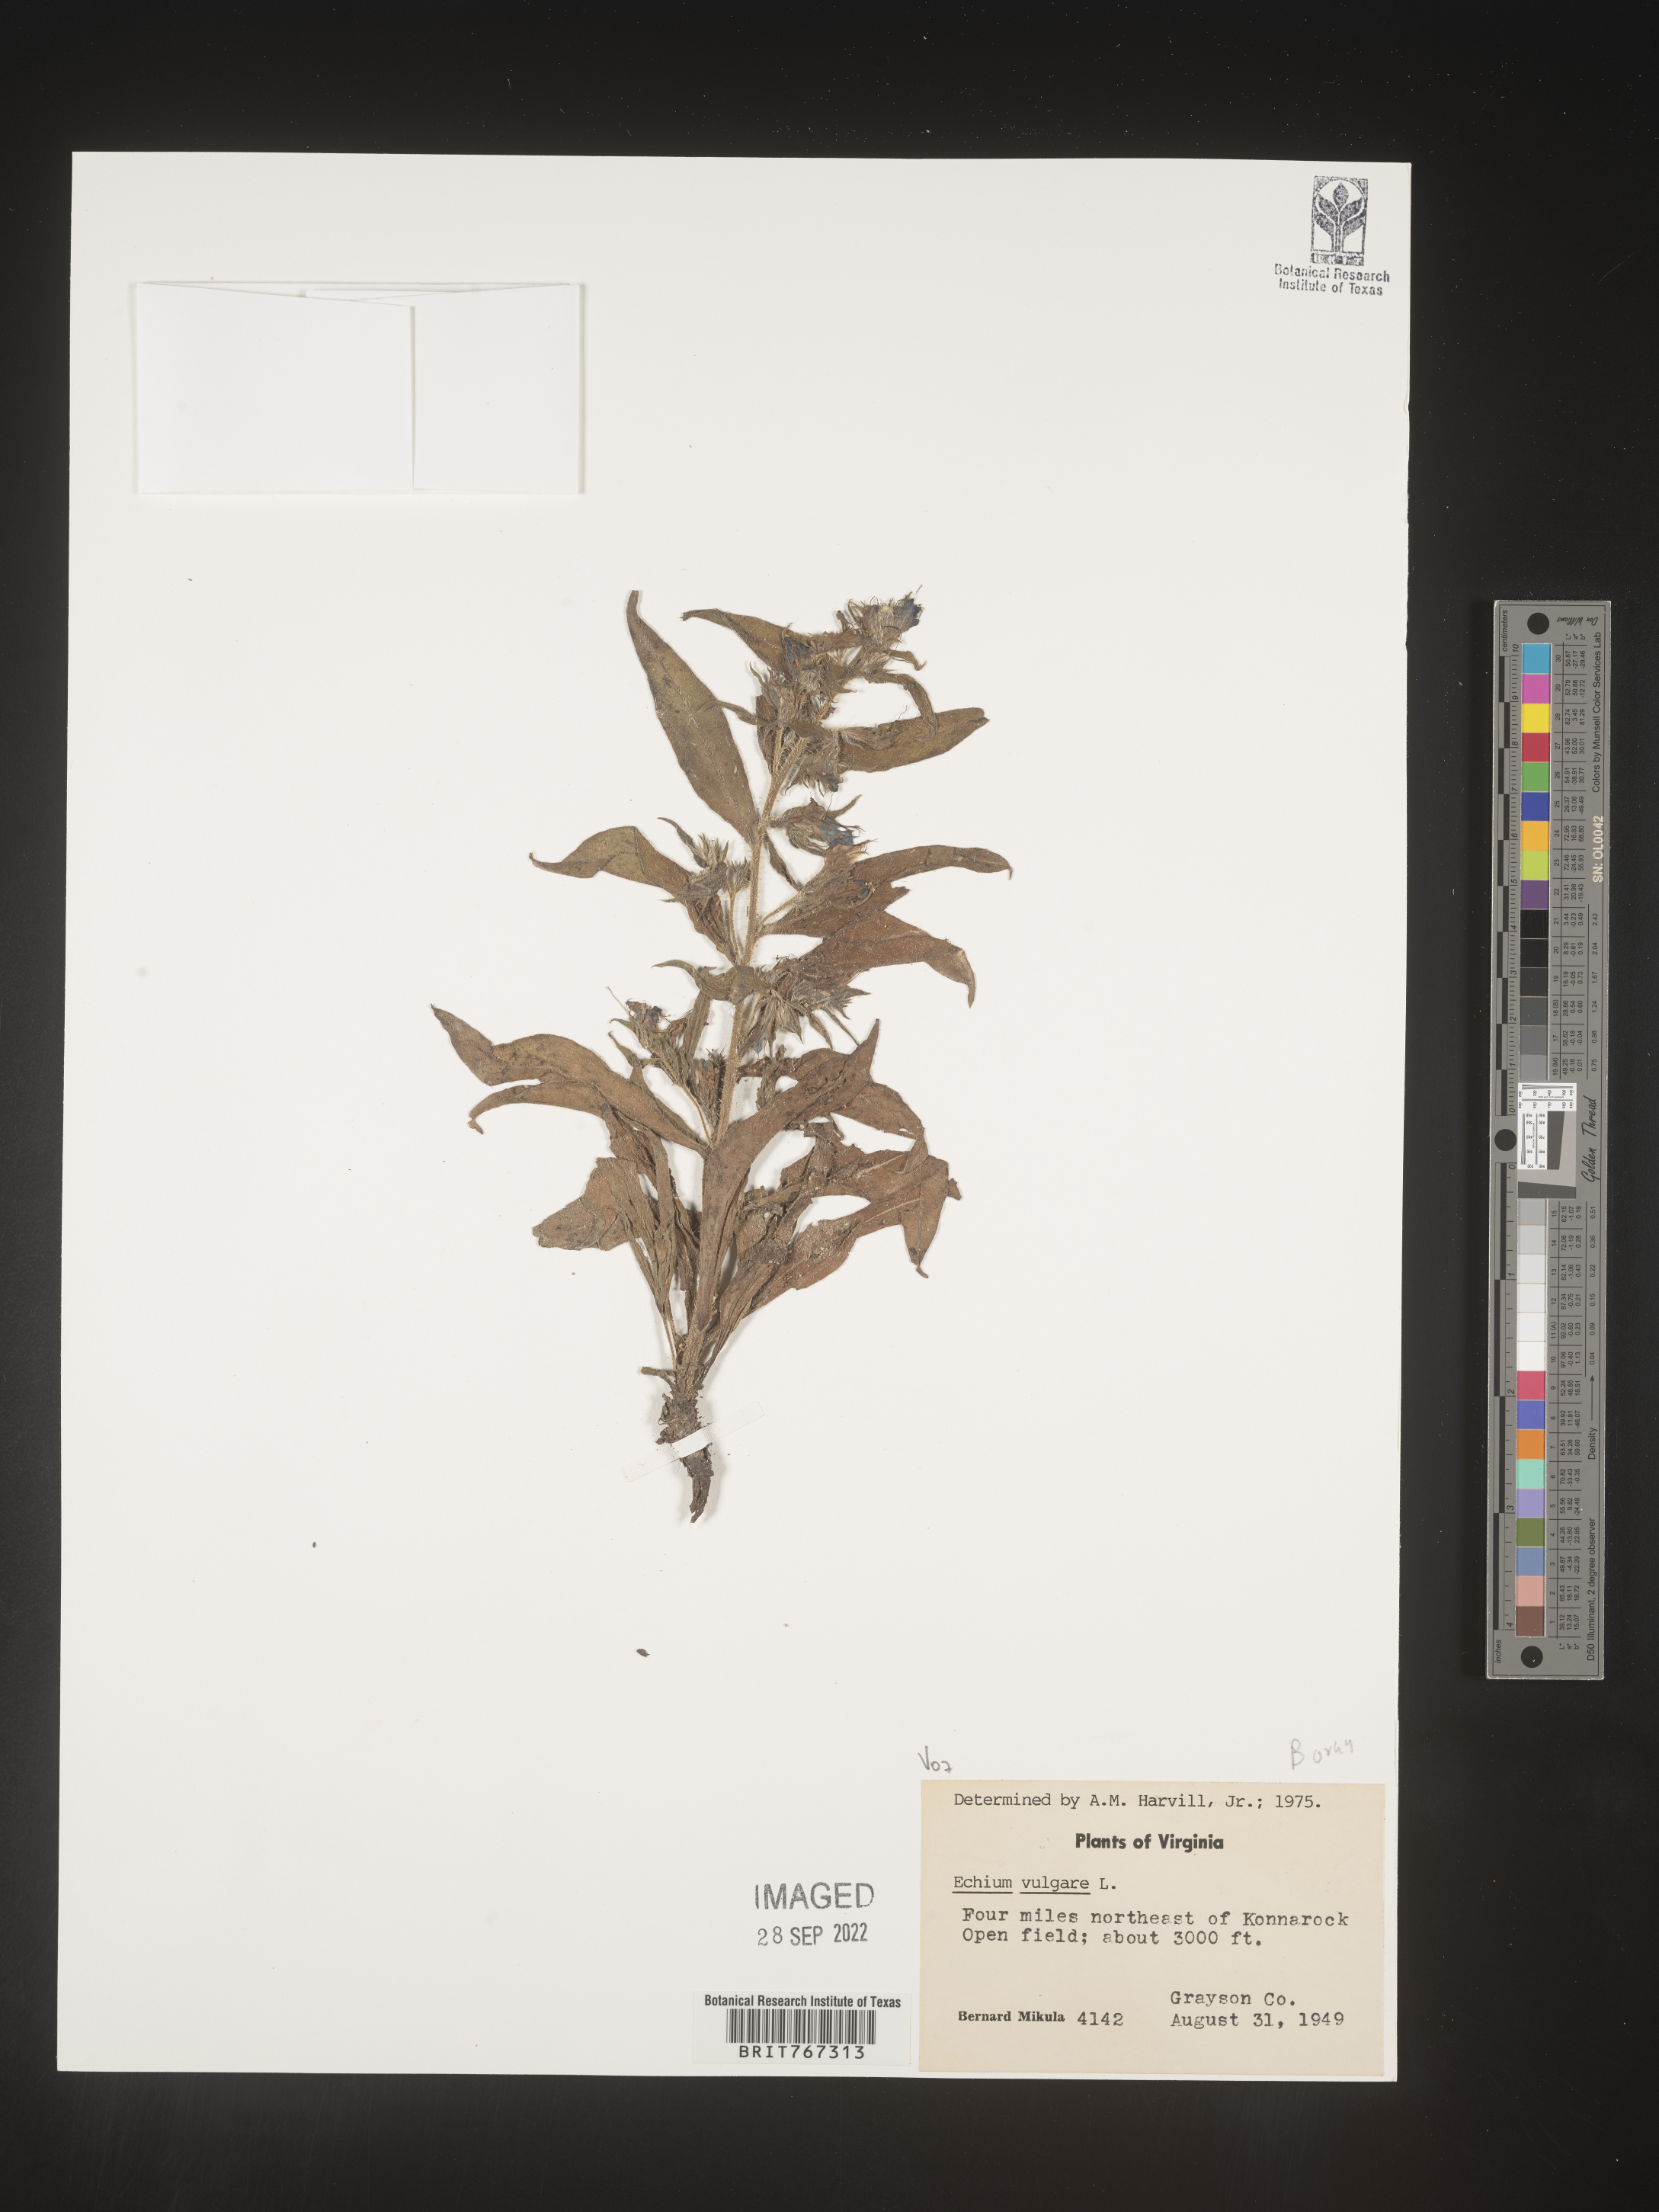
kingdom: Plantae
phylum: Tracheophyta
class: Magnoliopsida
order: Boraginales
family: Boraginaceae
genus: Echium
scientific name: Echium
